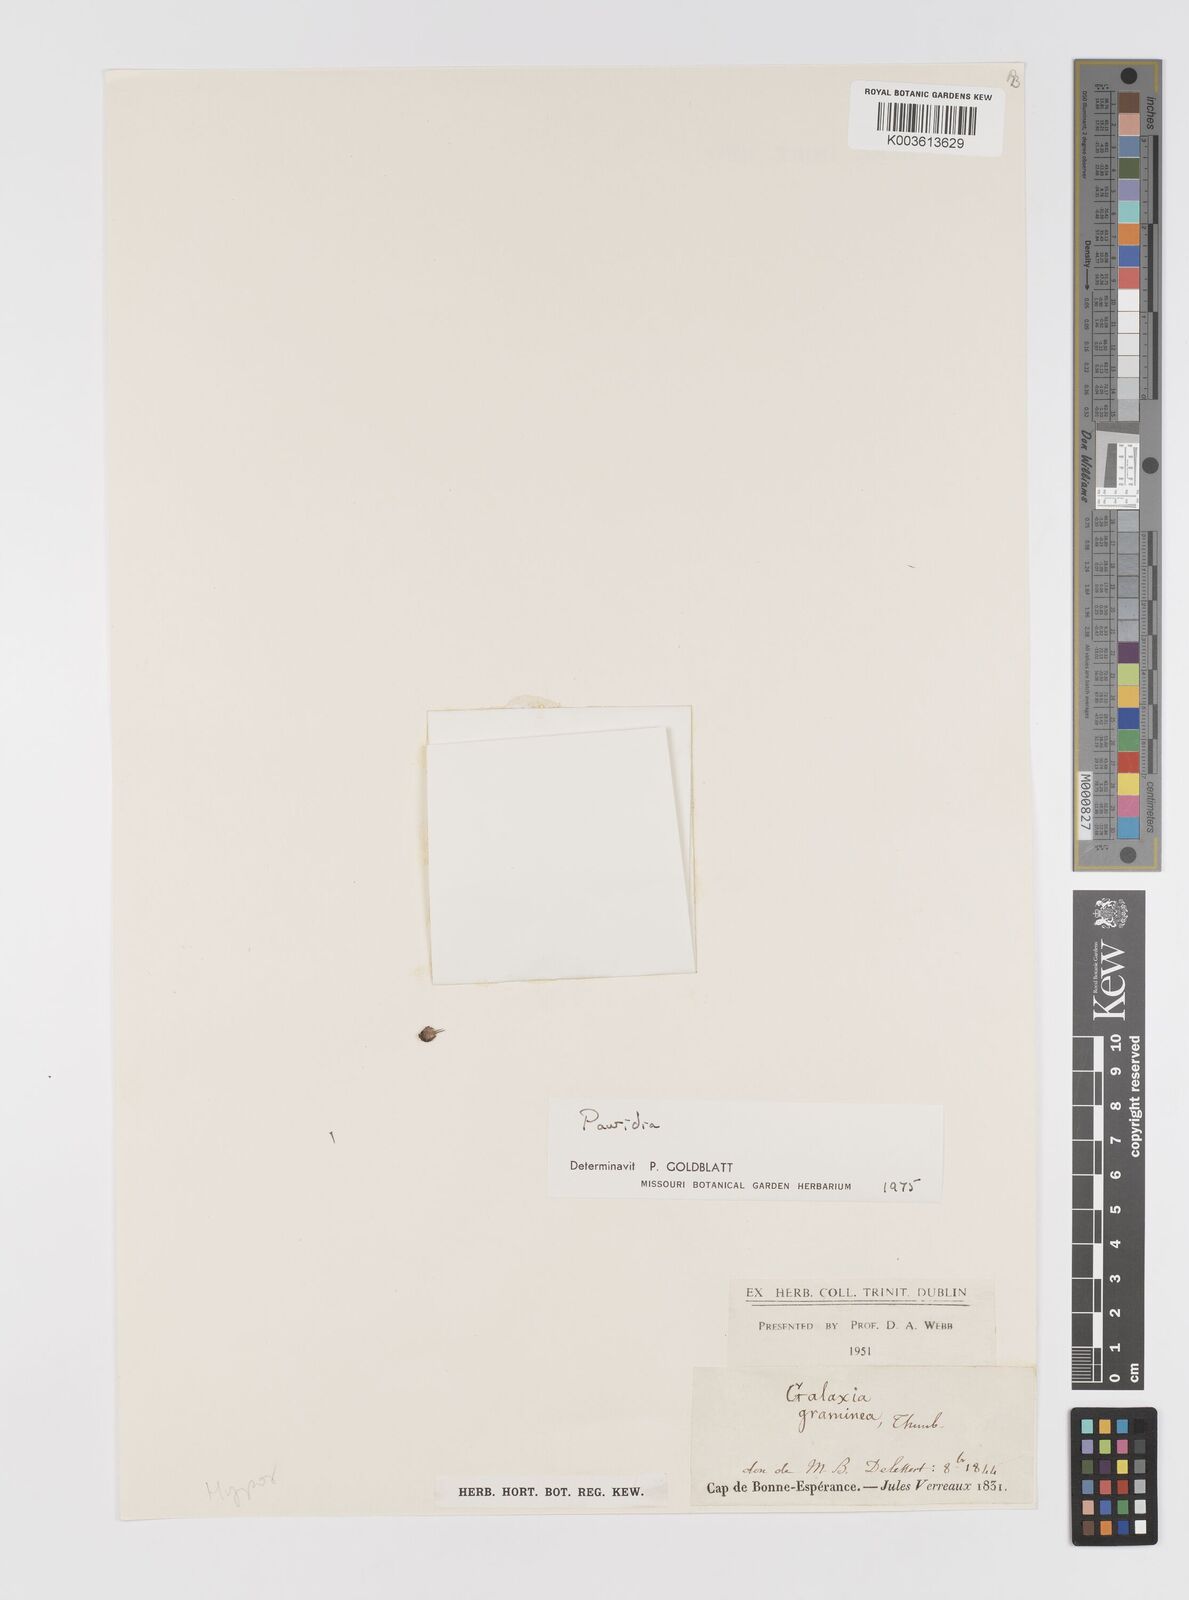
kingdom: Plantae
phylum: Tracheophyta
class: Liliopsida
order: Asparagales
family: Hypoxidaceae
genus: Pauridia
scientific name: Pauridia
